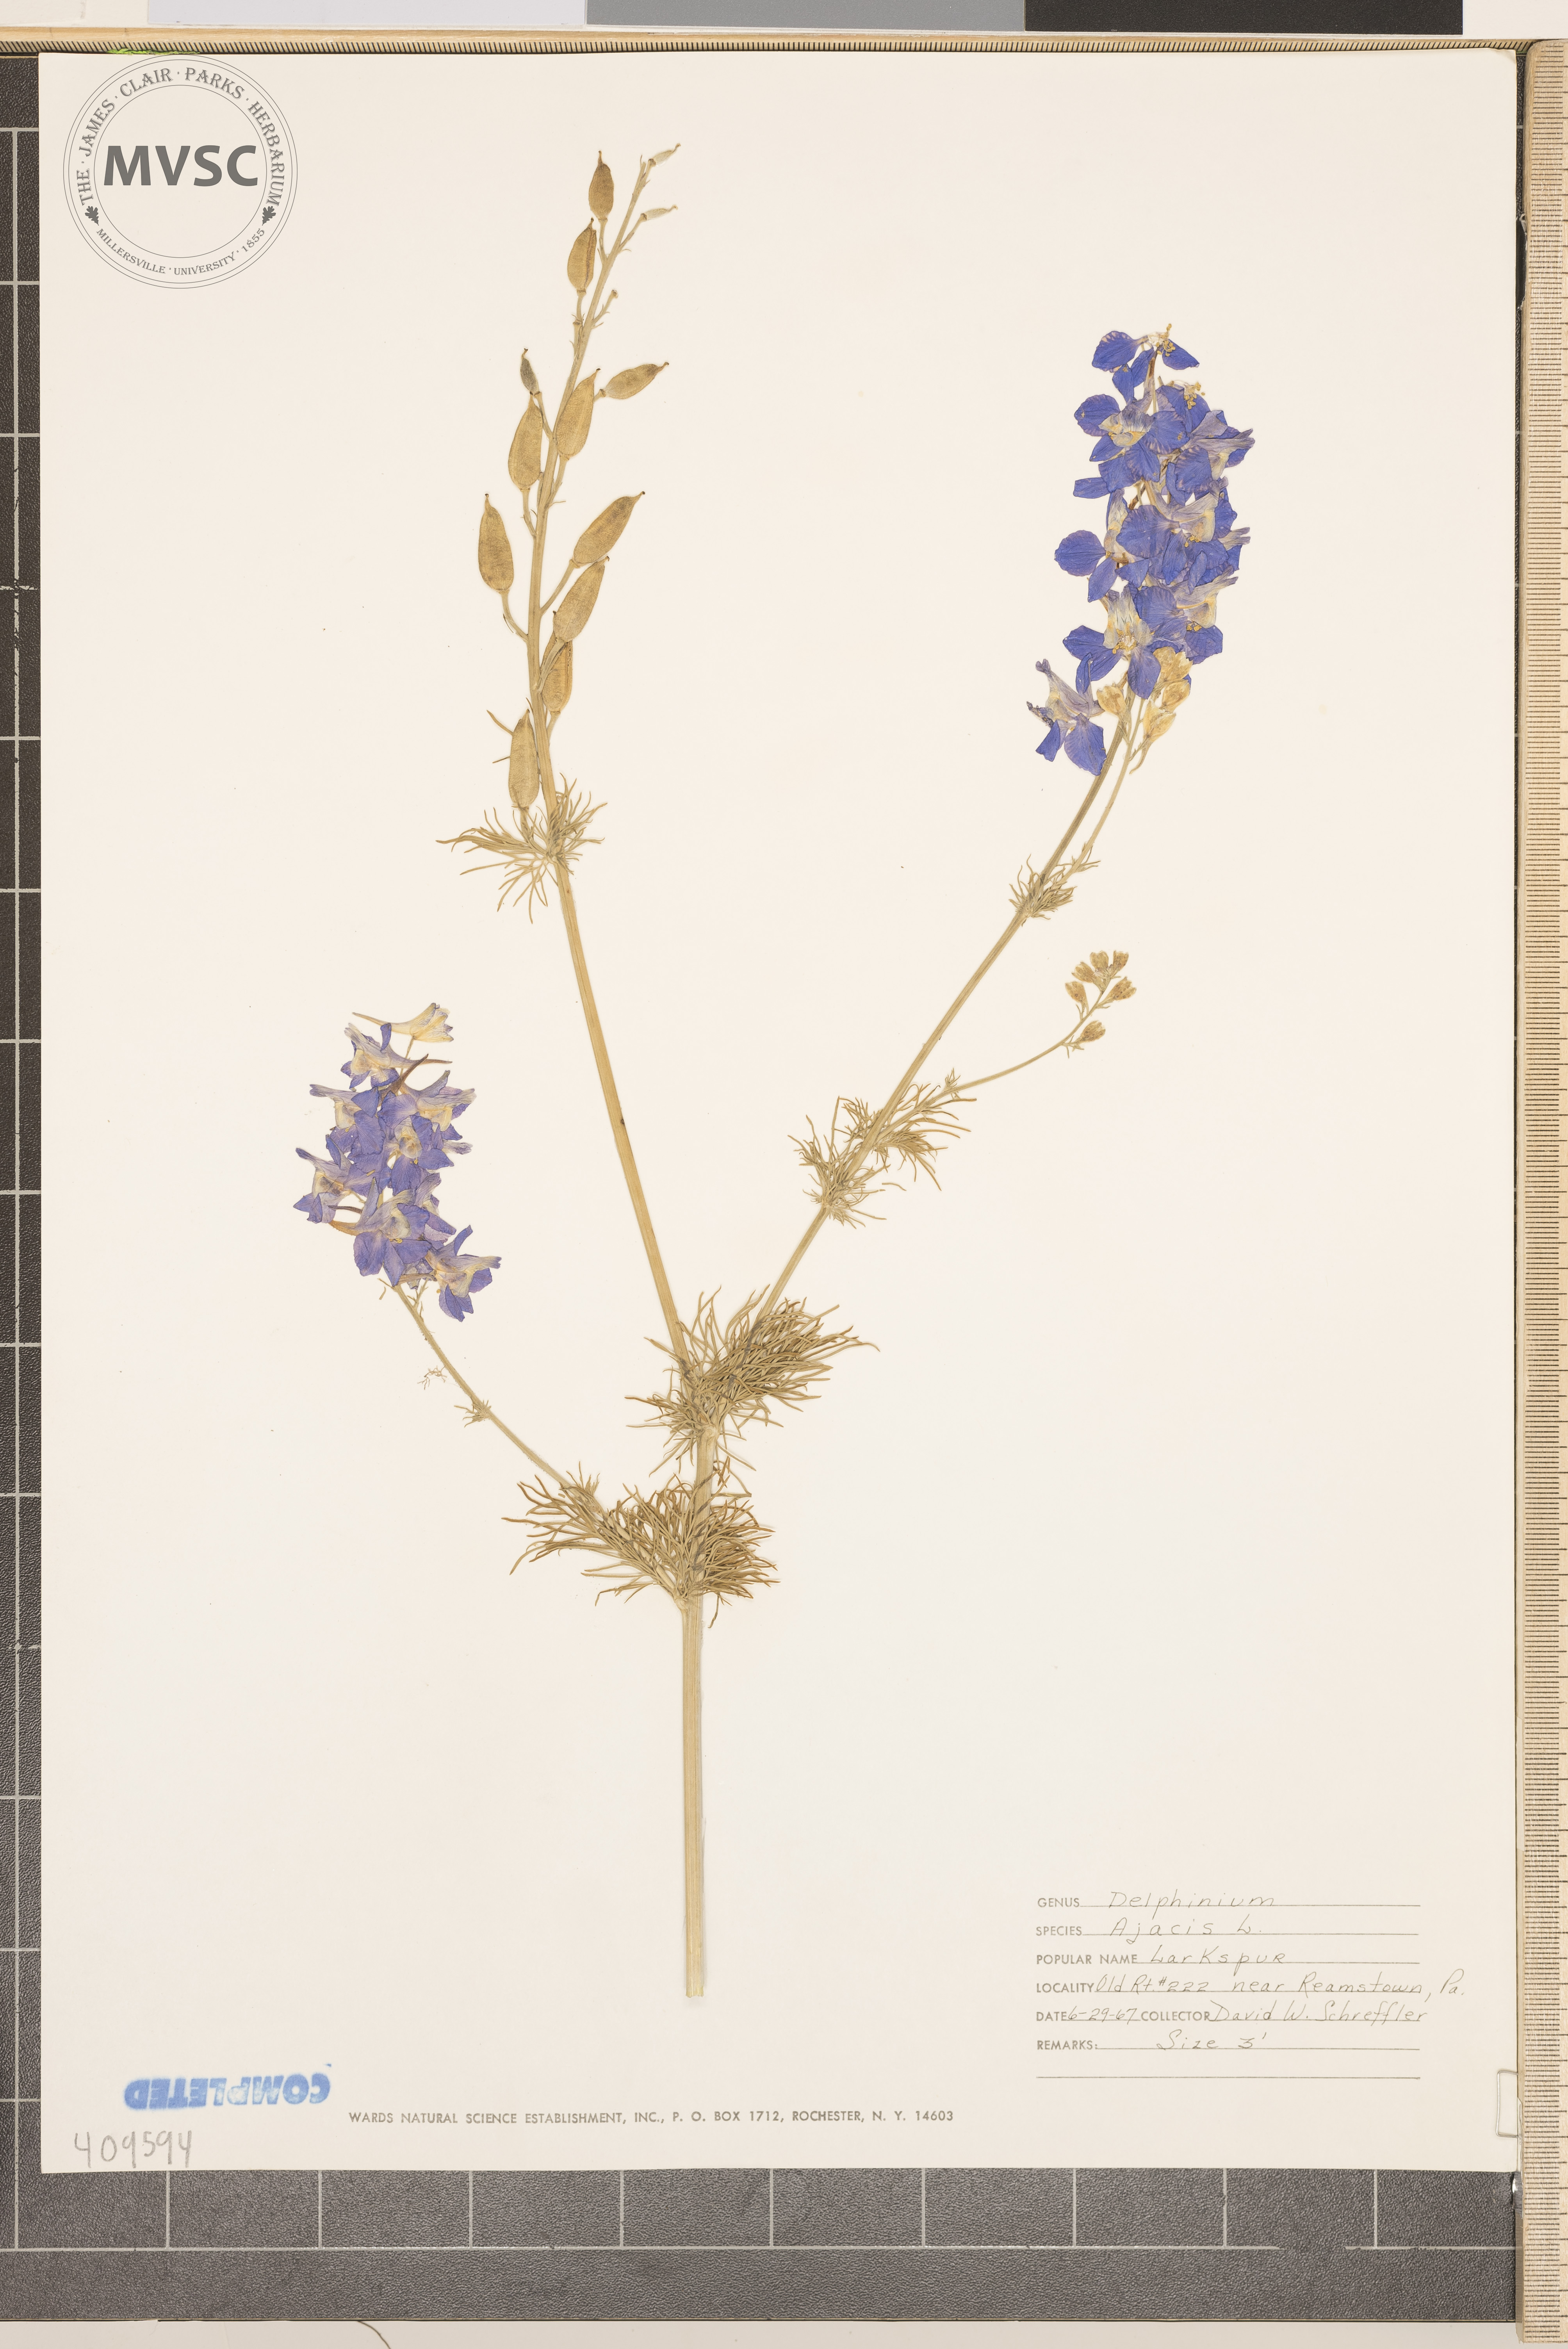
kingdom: Plantae
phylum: Tracheophyta
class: Magnoliopsida
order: Ranunculales
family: Ranunculaceae
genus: Delphinium
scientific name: Delphinium ajacis
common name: Doubtful knight's-spur
